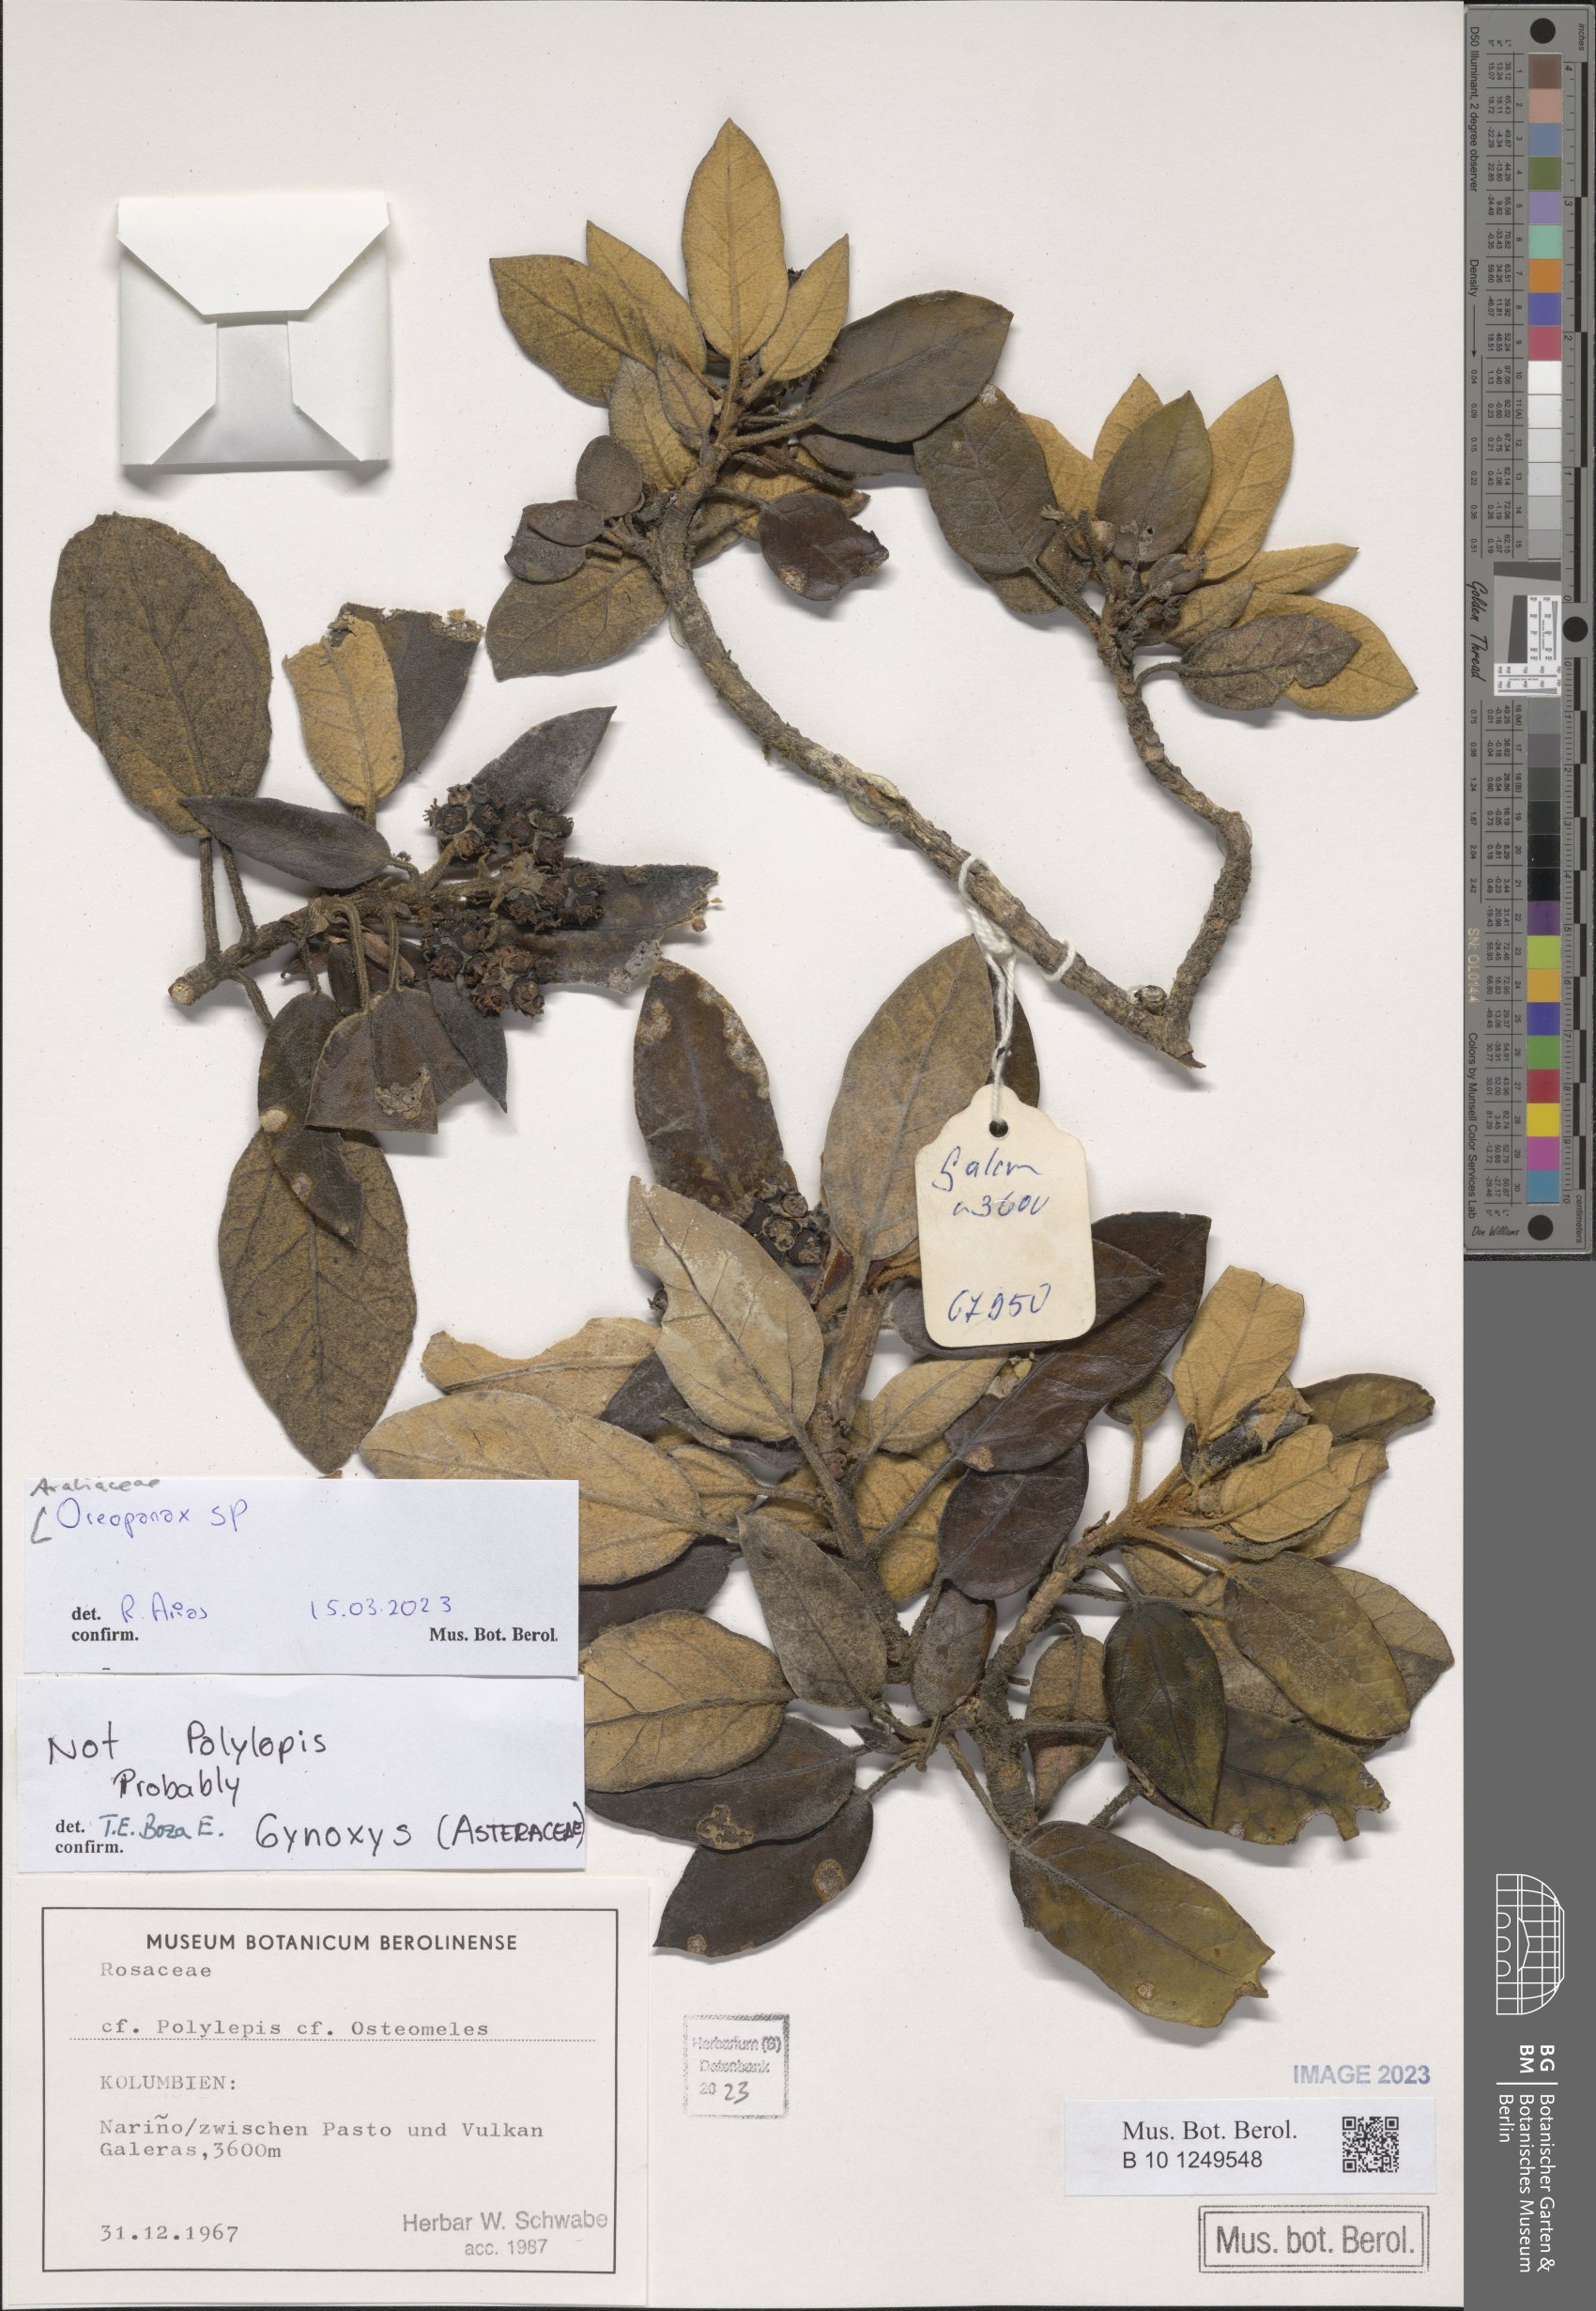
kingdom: Plantae
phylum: Tracheophyta
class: Magnoliopsida
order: Apiales
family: Araliaceae
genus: Oreopanax
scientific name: Oreopanax
